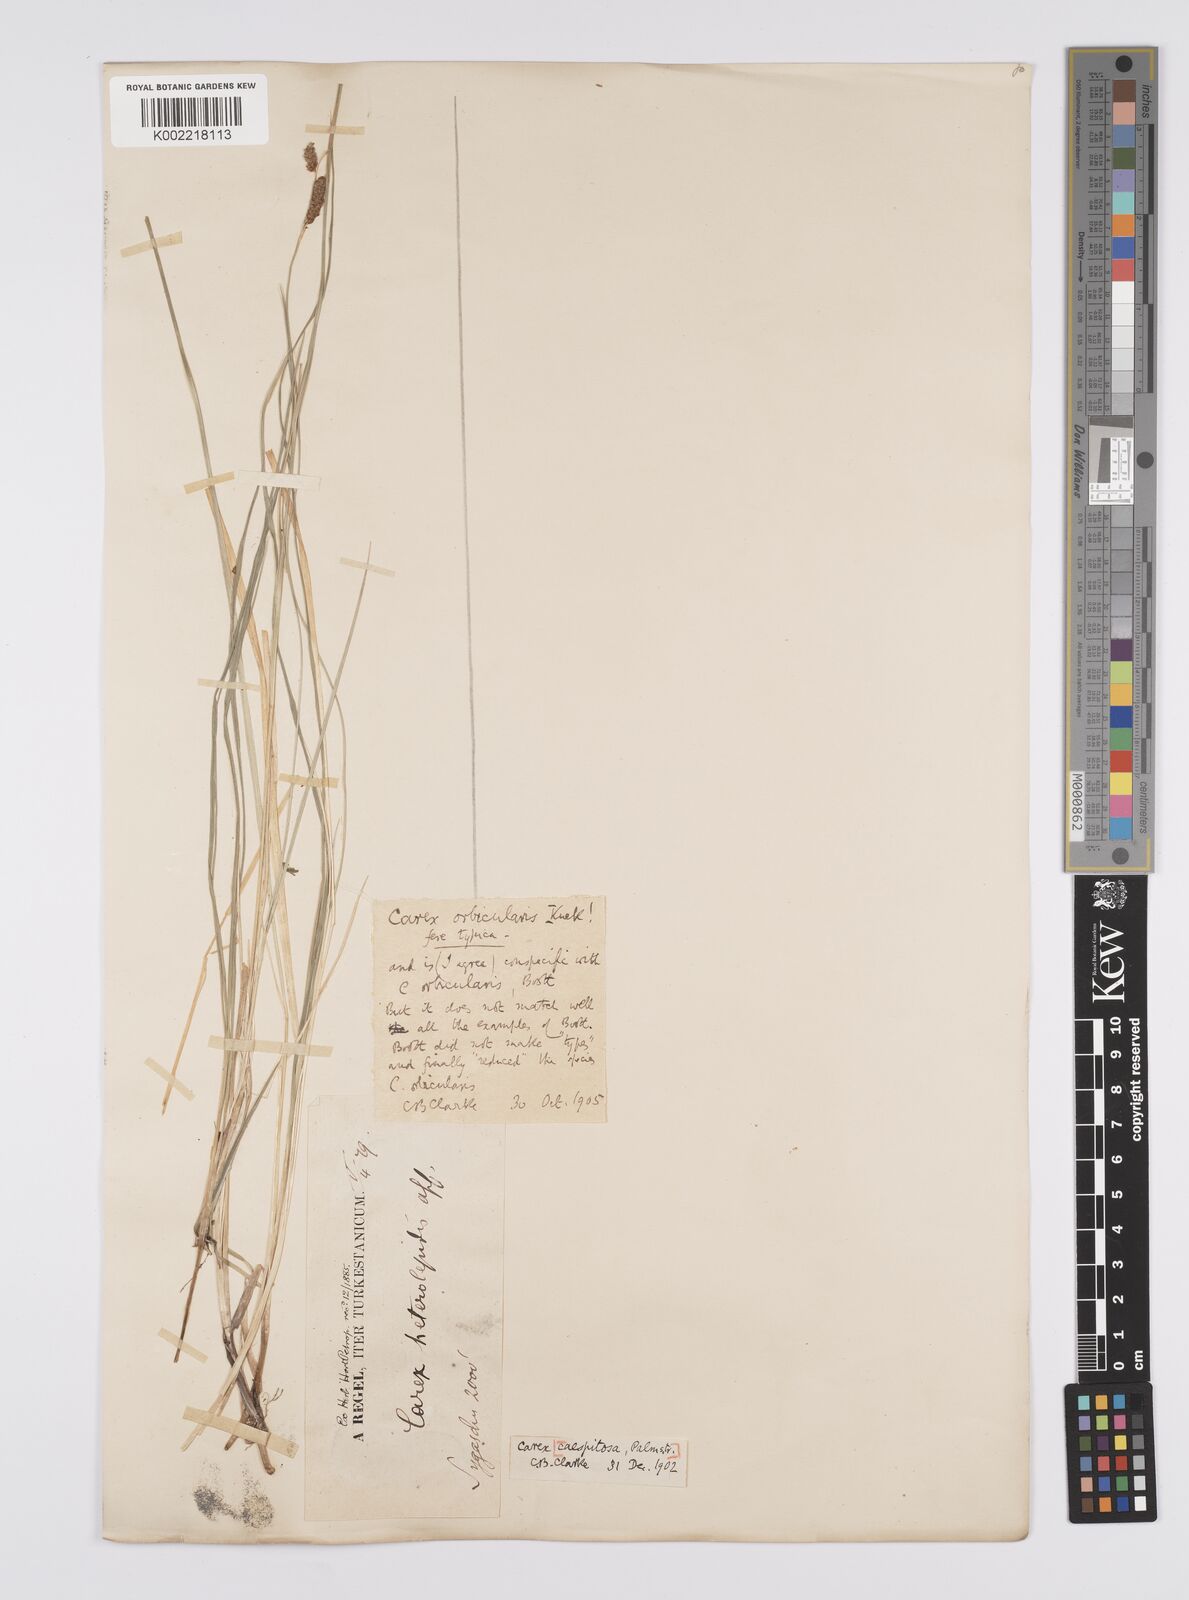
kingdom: Plantae
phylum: Tracheophyta
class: Liliopsida
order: Poales
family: Cyperaceae
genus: Carex
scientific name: Carex orbicularis
